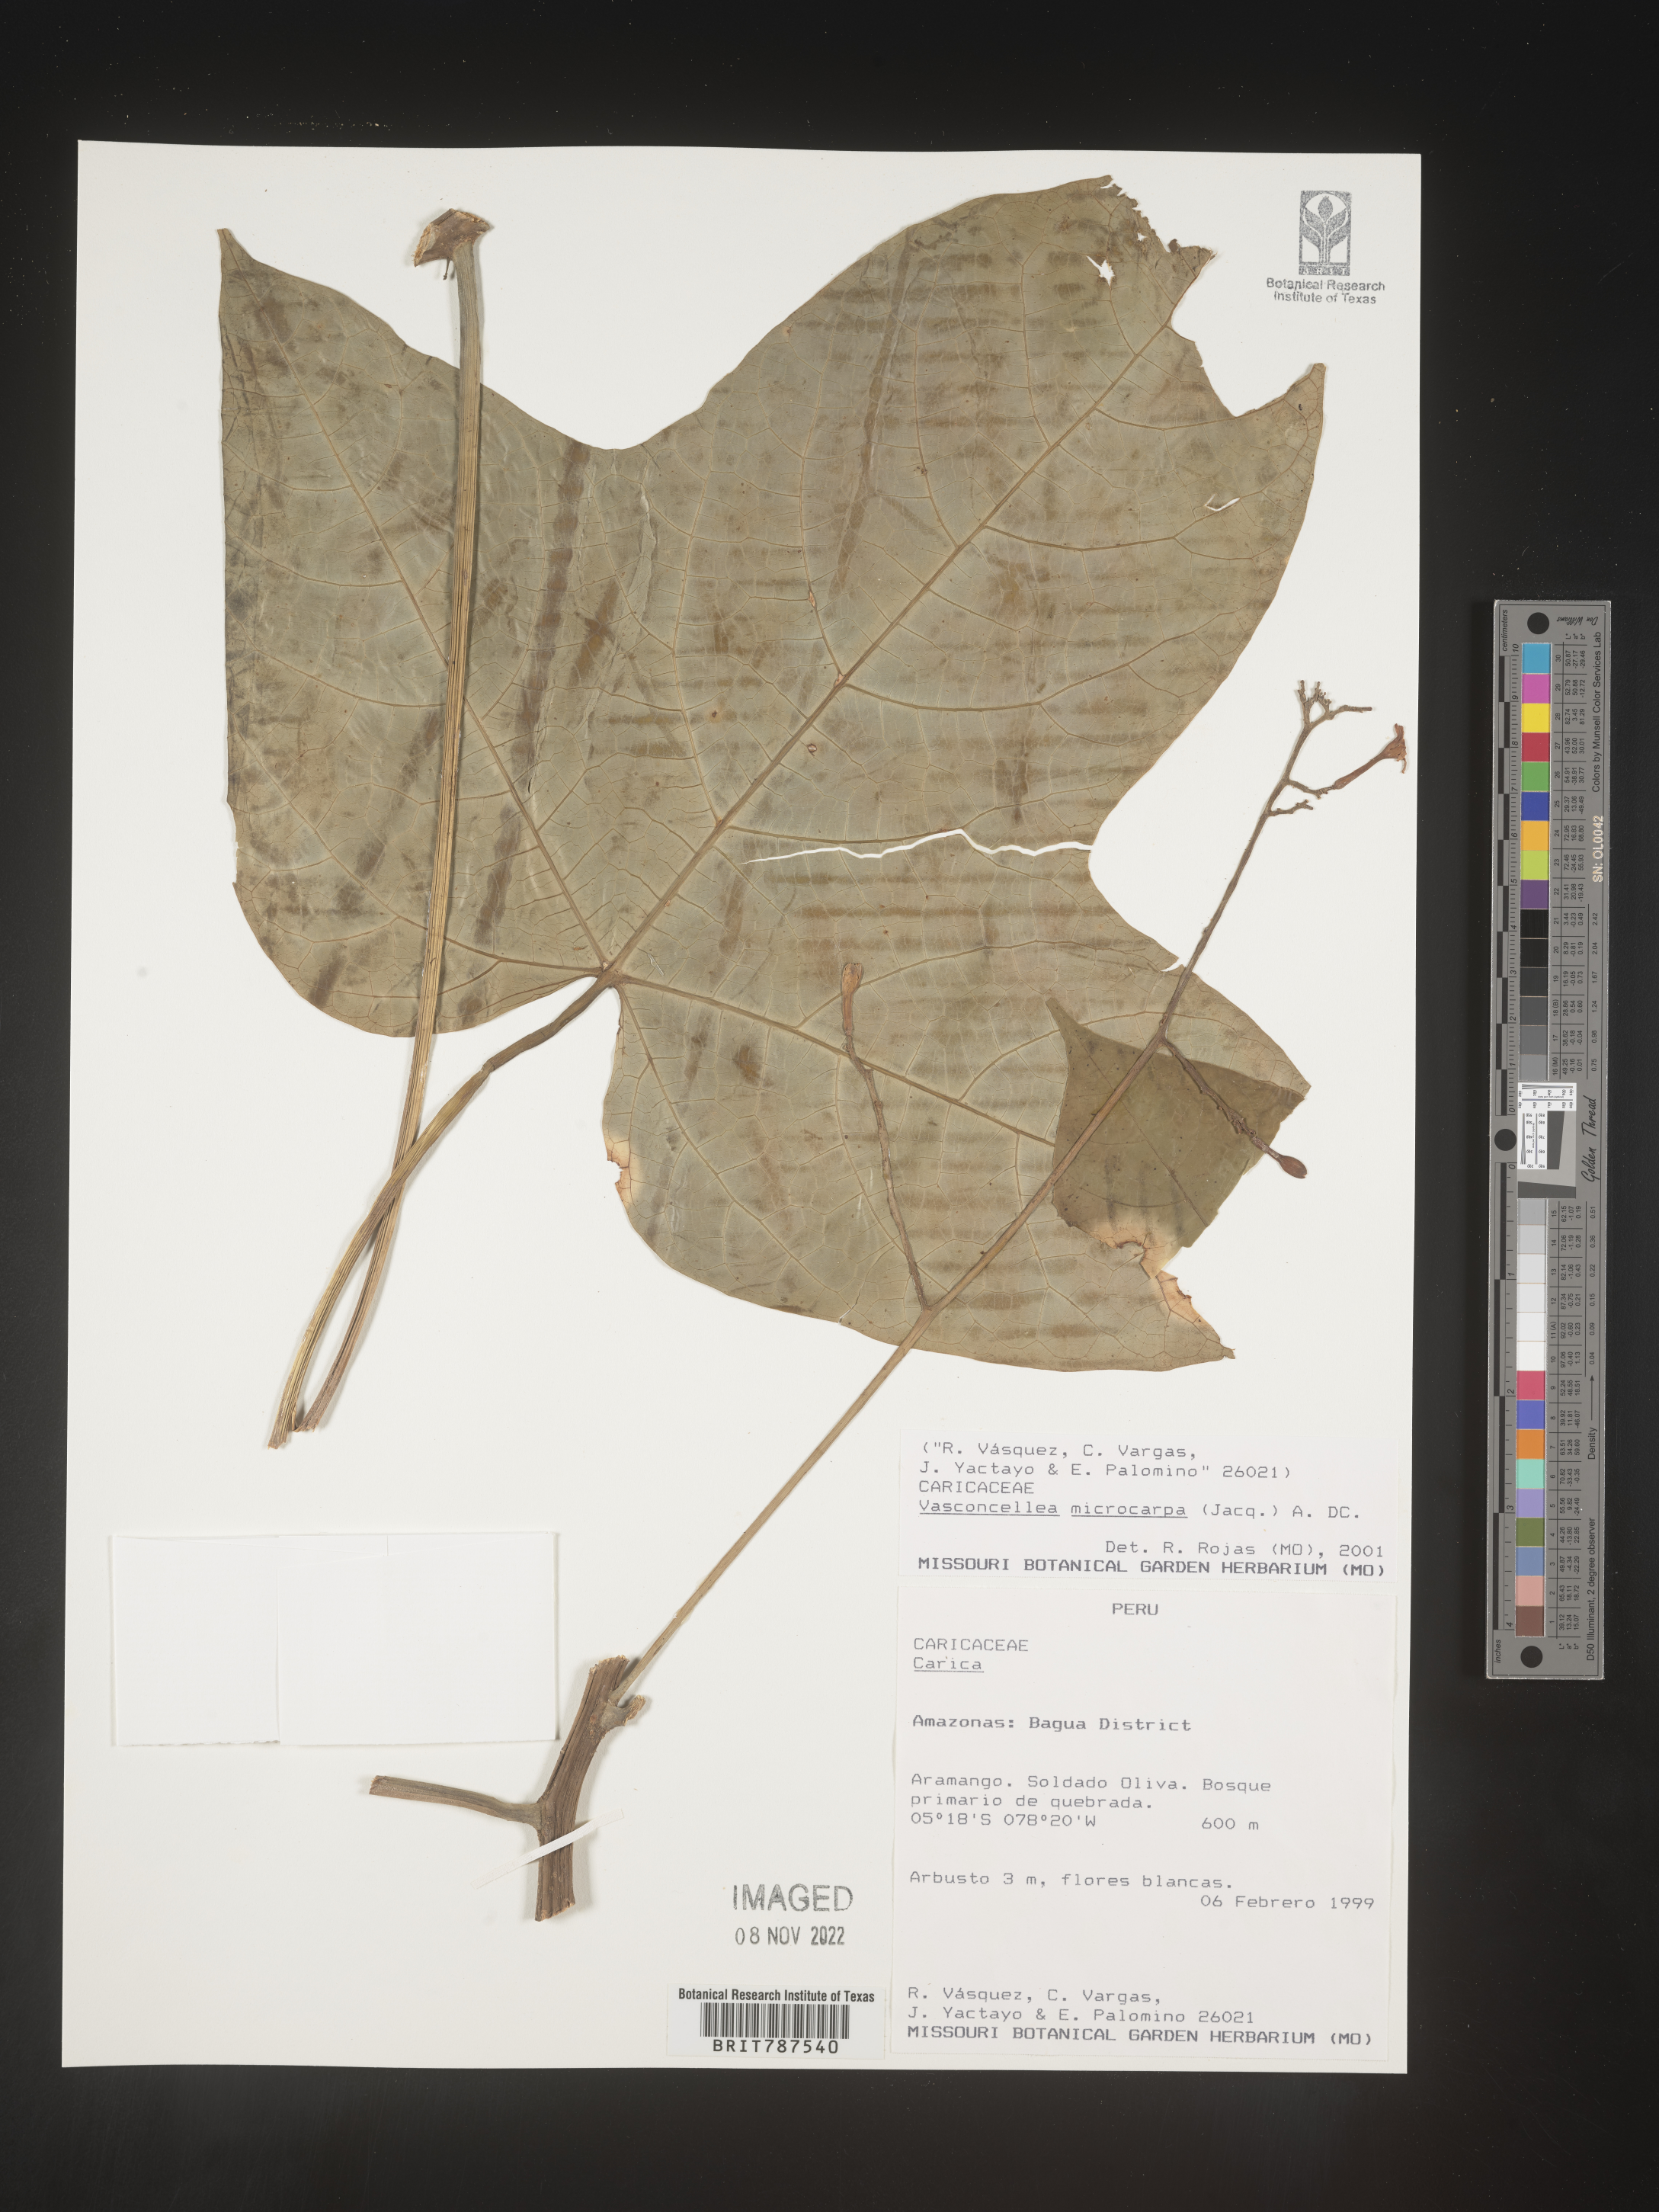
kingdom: Plantae
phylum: Tracheophyta
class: Magnoliopsida
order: Brassicales
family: Caricaceae
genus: Vasconcellea
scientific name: Vasconcellea
